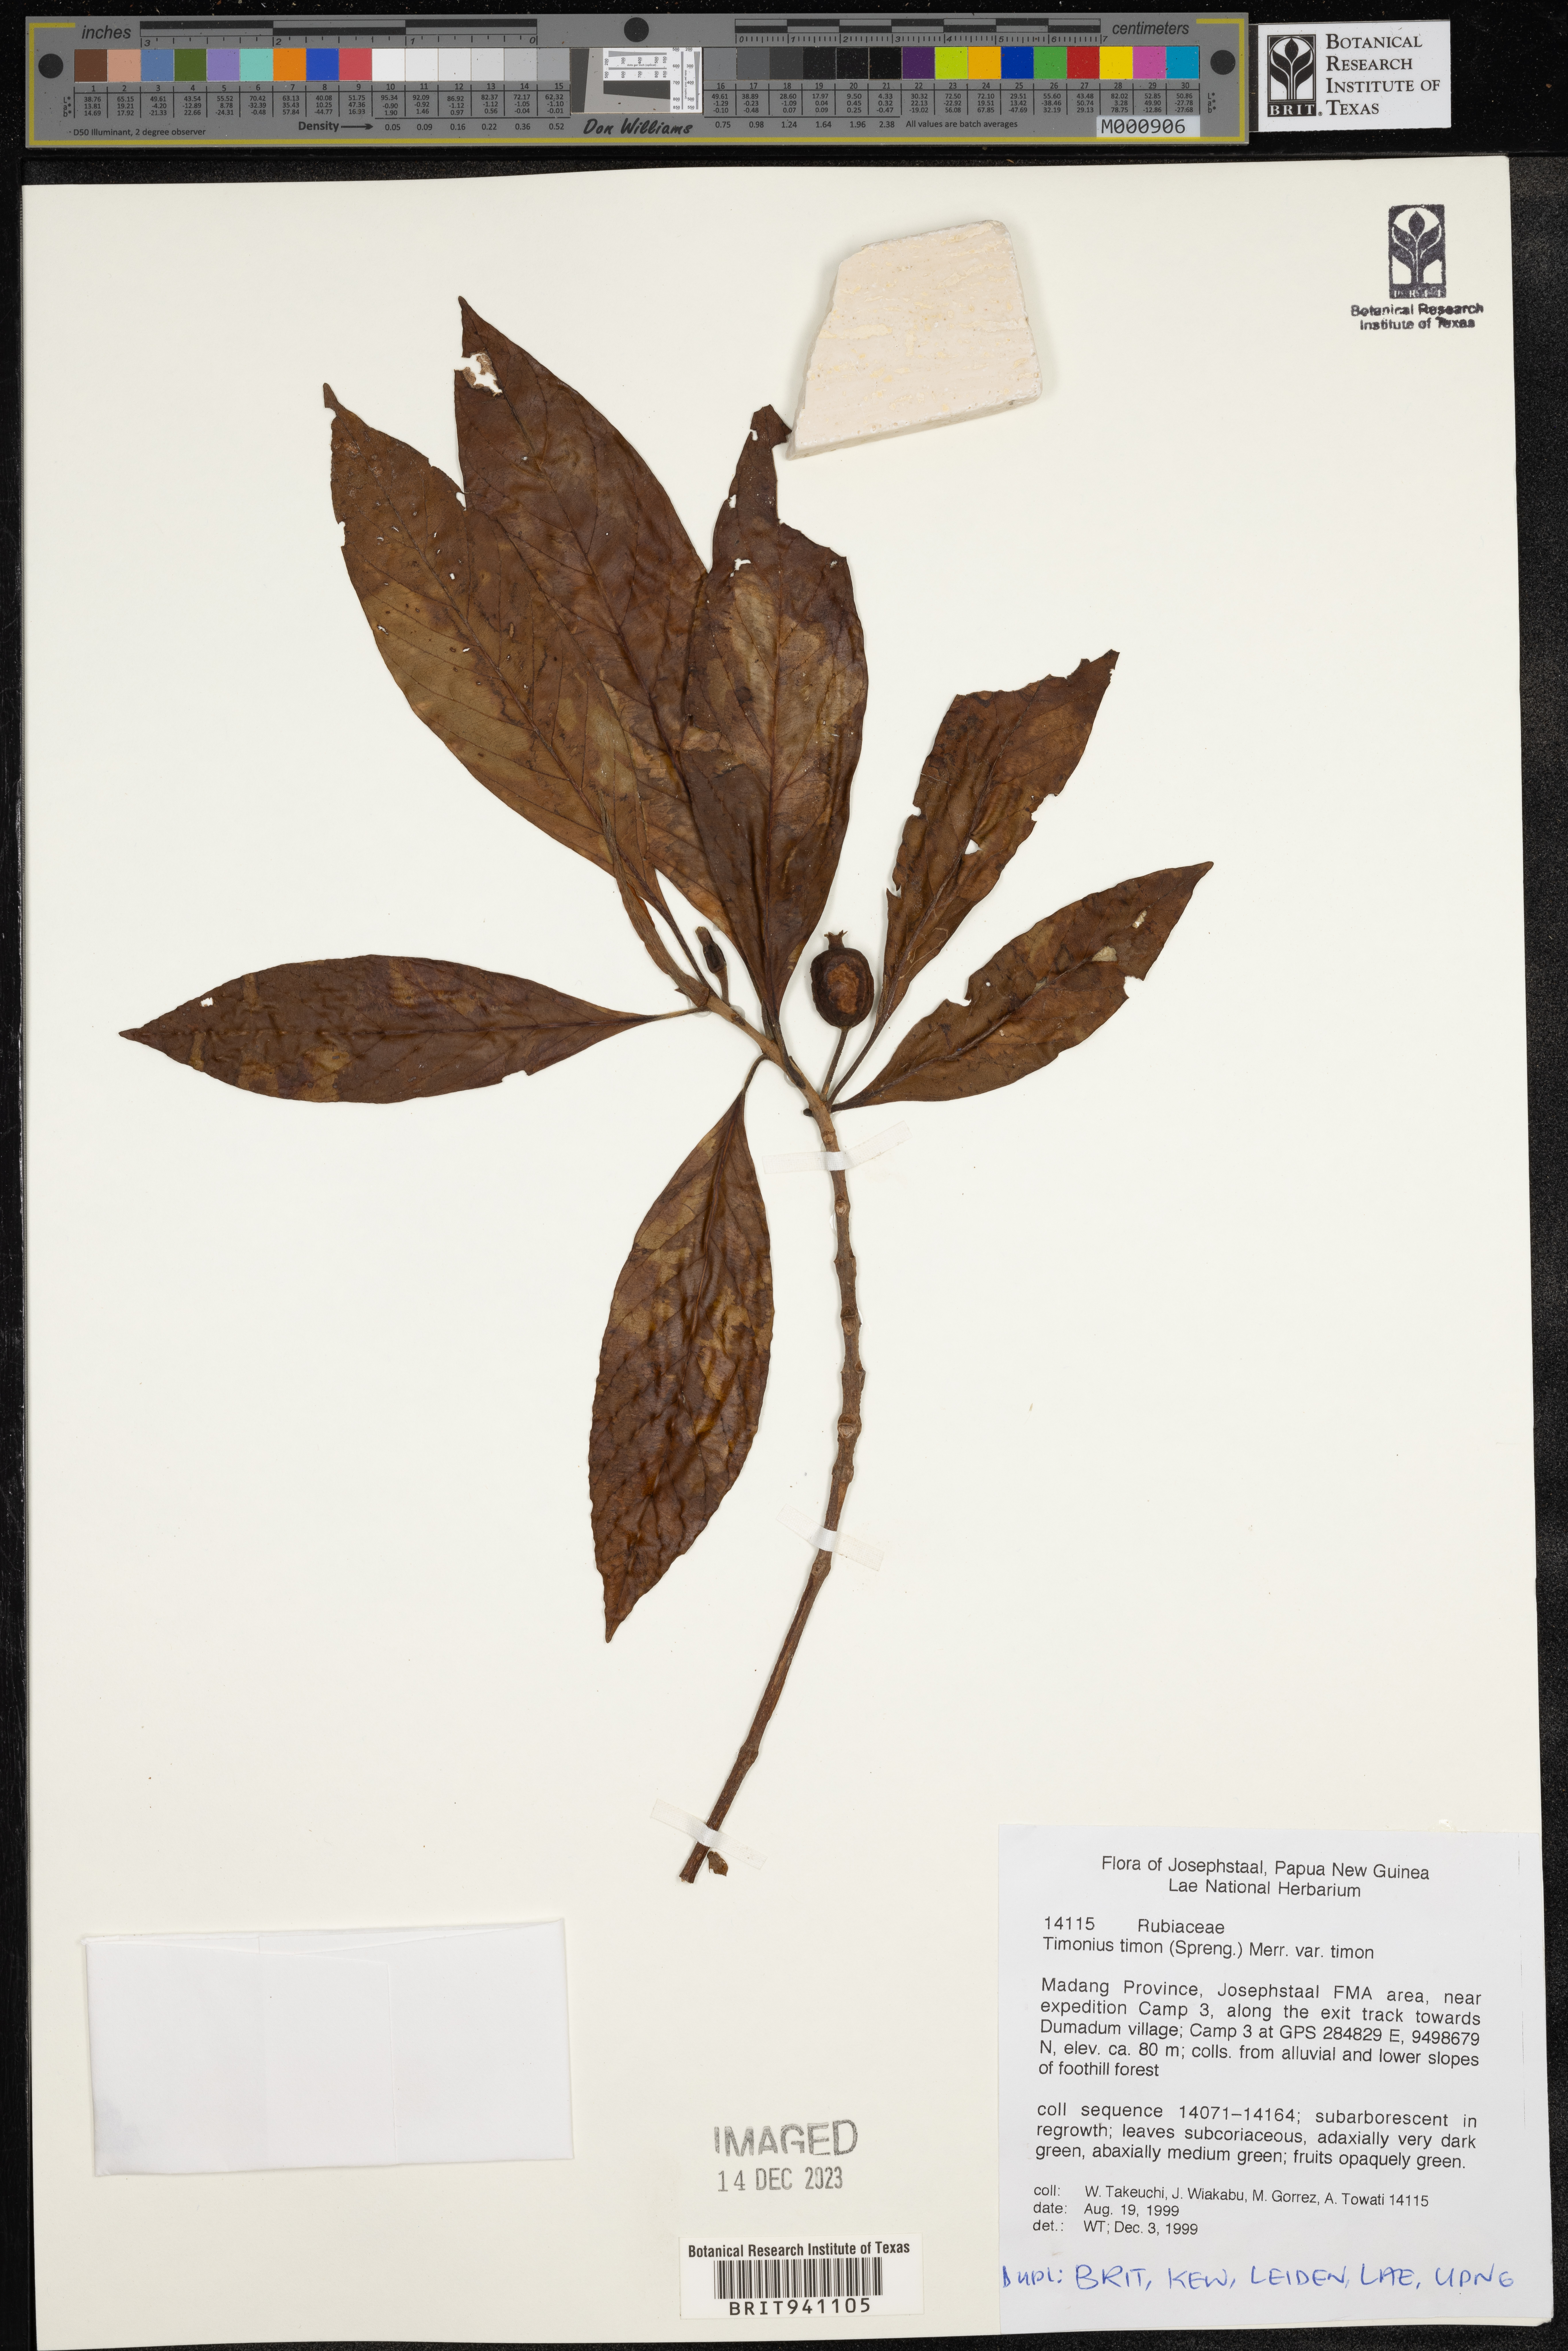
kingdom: Plantae
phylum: Tracheophyta
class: Magnoliopsida
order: Gentianales
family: Rubiaceae
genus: Timonius
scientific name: Timonius
